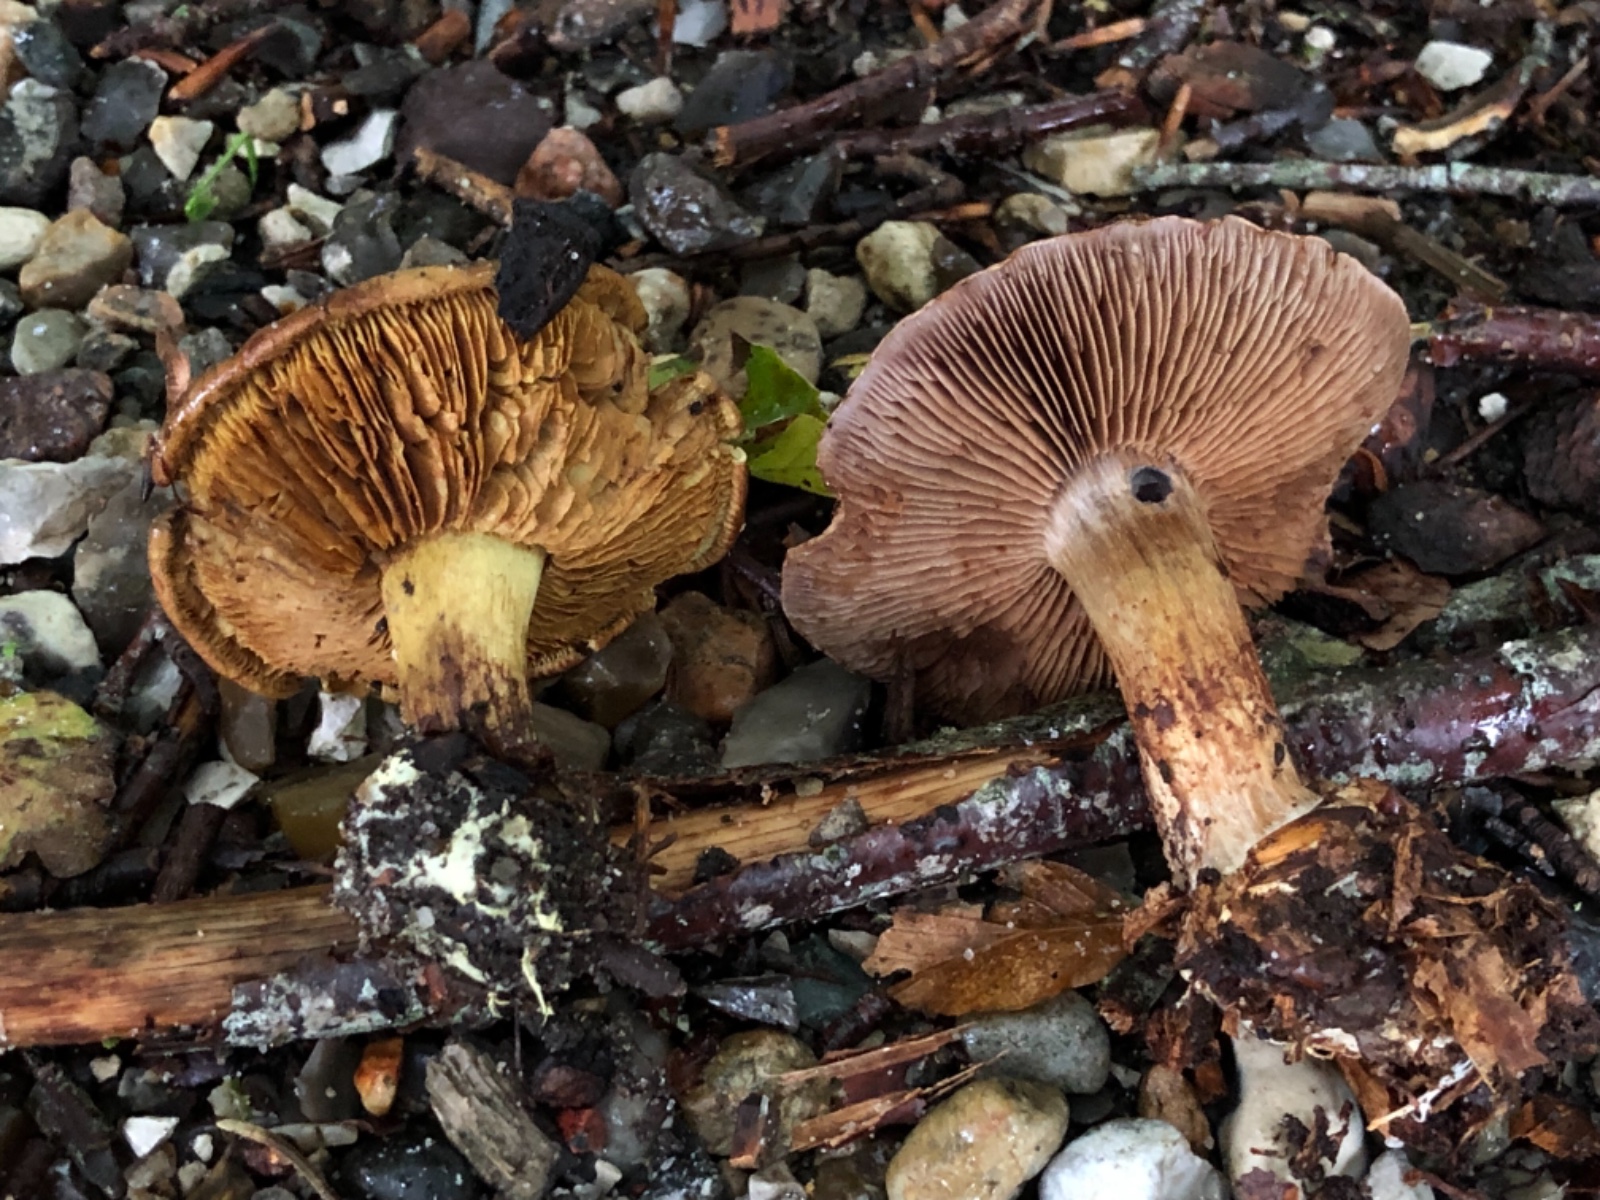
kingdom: Fungi
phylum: Basidiomycota
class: Agaricomycetes
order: Agaricales
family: Cortinariaceae
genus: Phlegmacium
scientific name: Phlegmacium luhmannii
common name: musegrå slørhat
